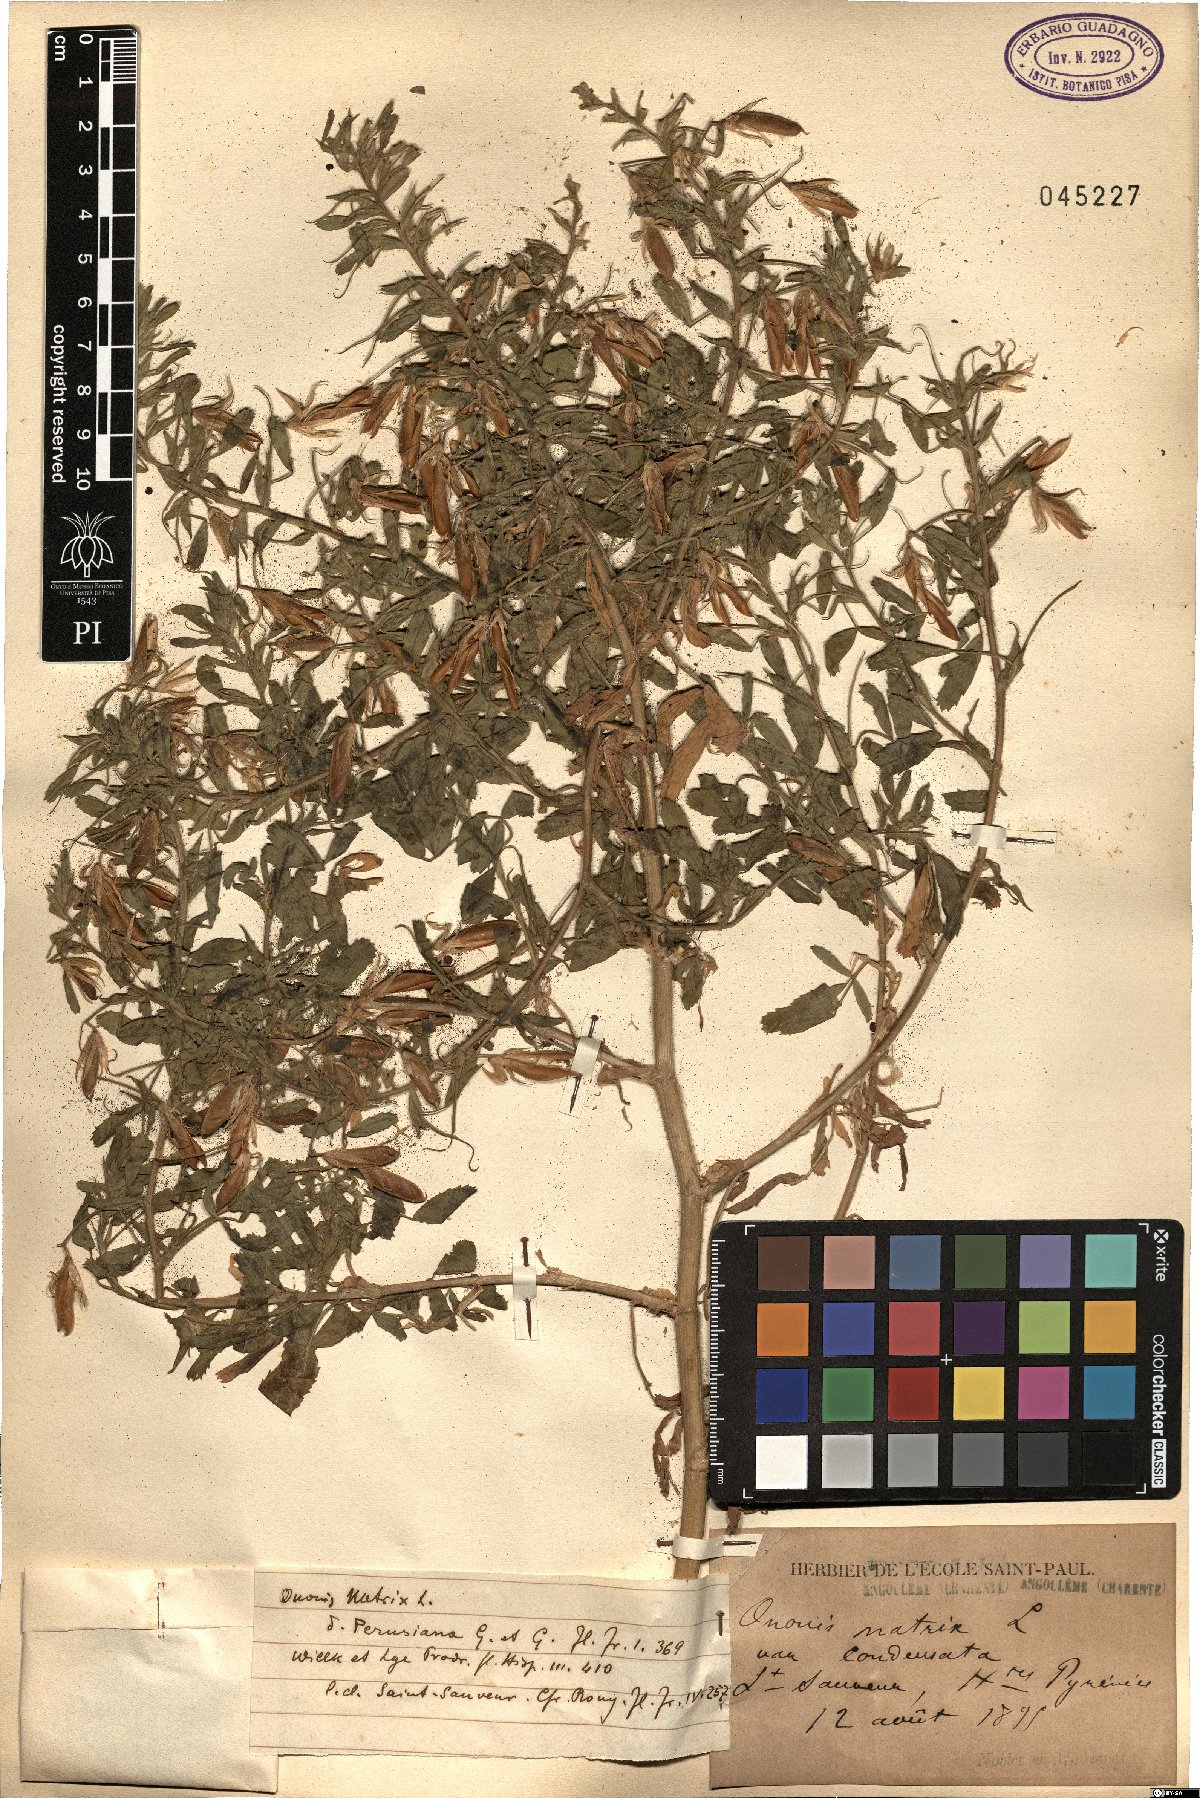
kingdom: Plantae
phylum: Tracheophyta
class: Magnoliopsida
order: Fabales
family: Fabaceae
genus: Ononis
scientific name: Ononis natrix
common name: Yellow restharrow
